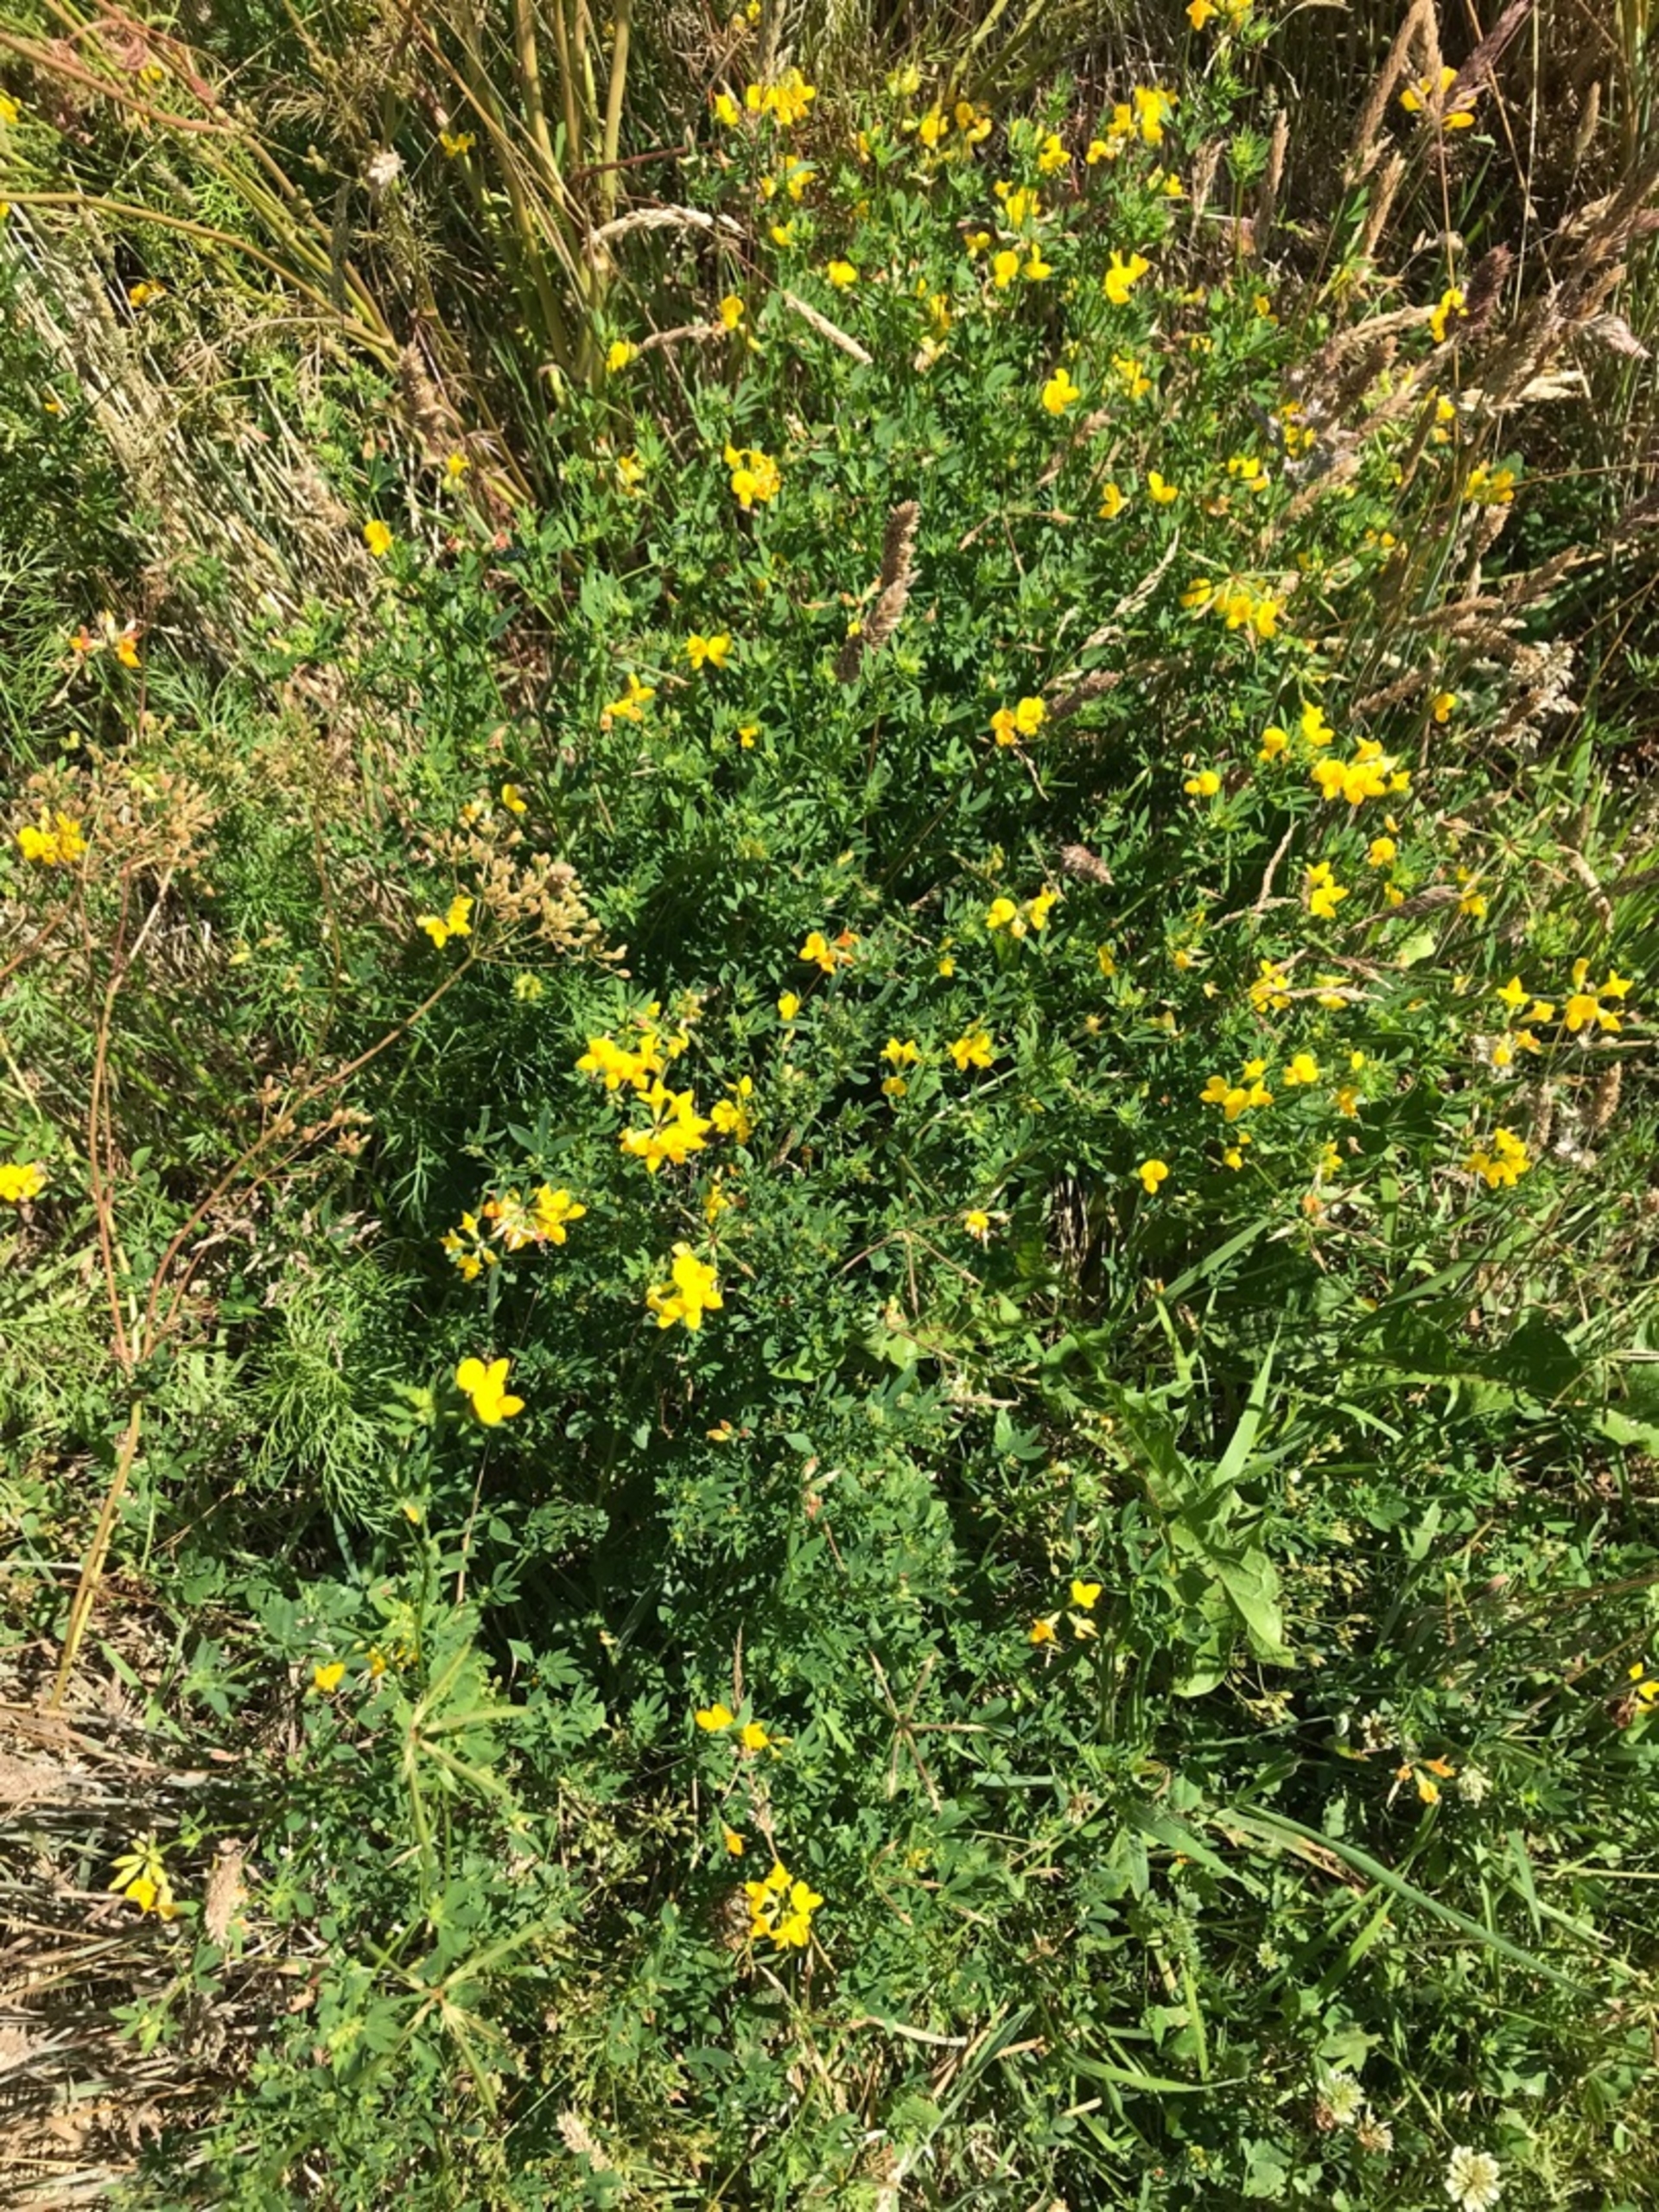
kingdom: Plantae
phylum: Tracheophyta
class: Magnoliopsida
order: Fabales
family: Fabaceae
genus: Lotus
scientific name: Lotus corniculatus
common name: Almindelig kællingetand
